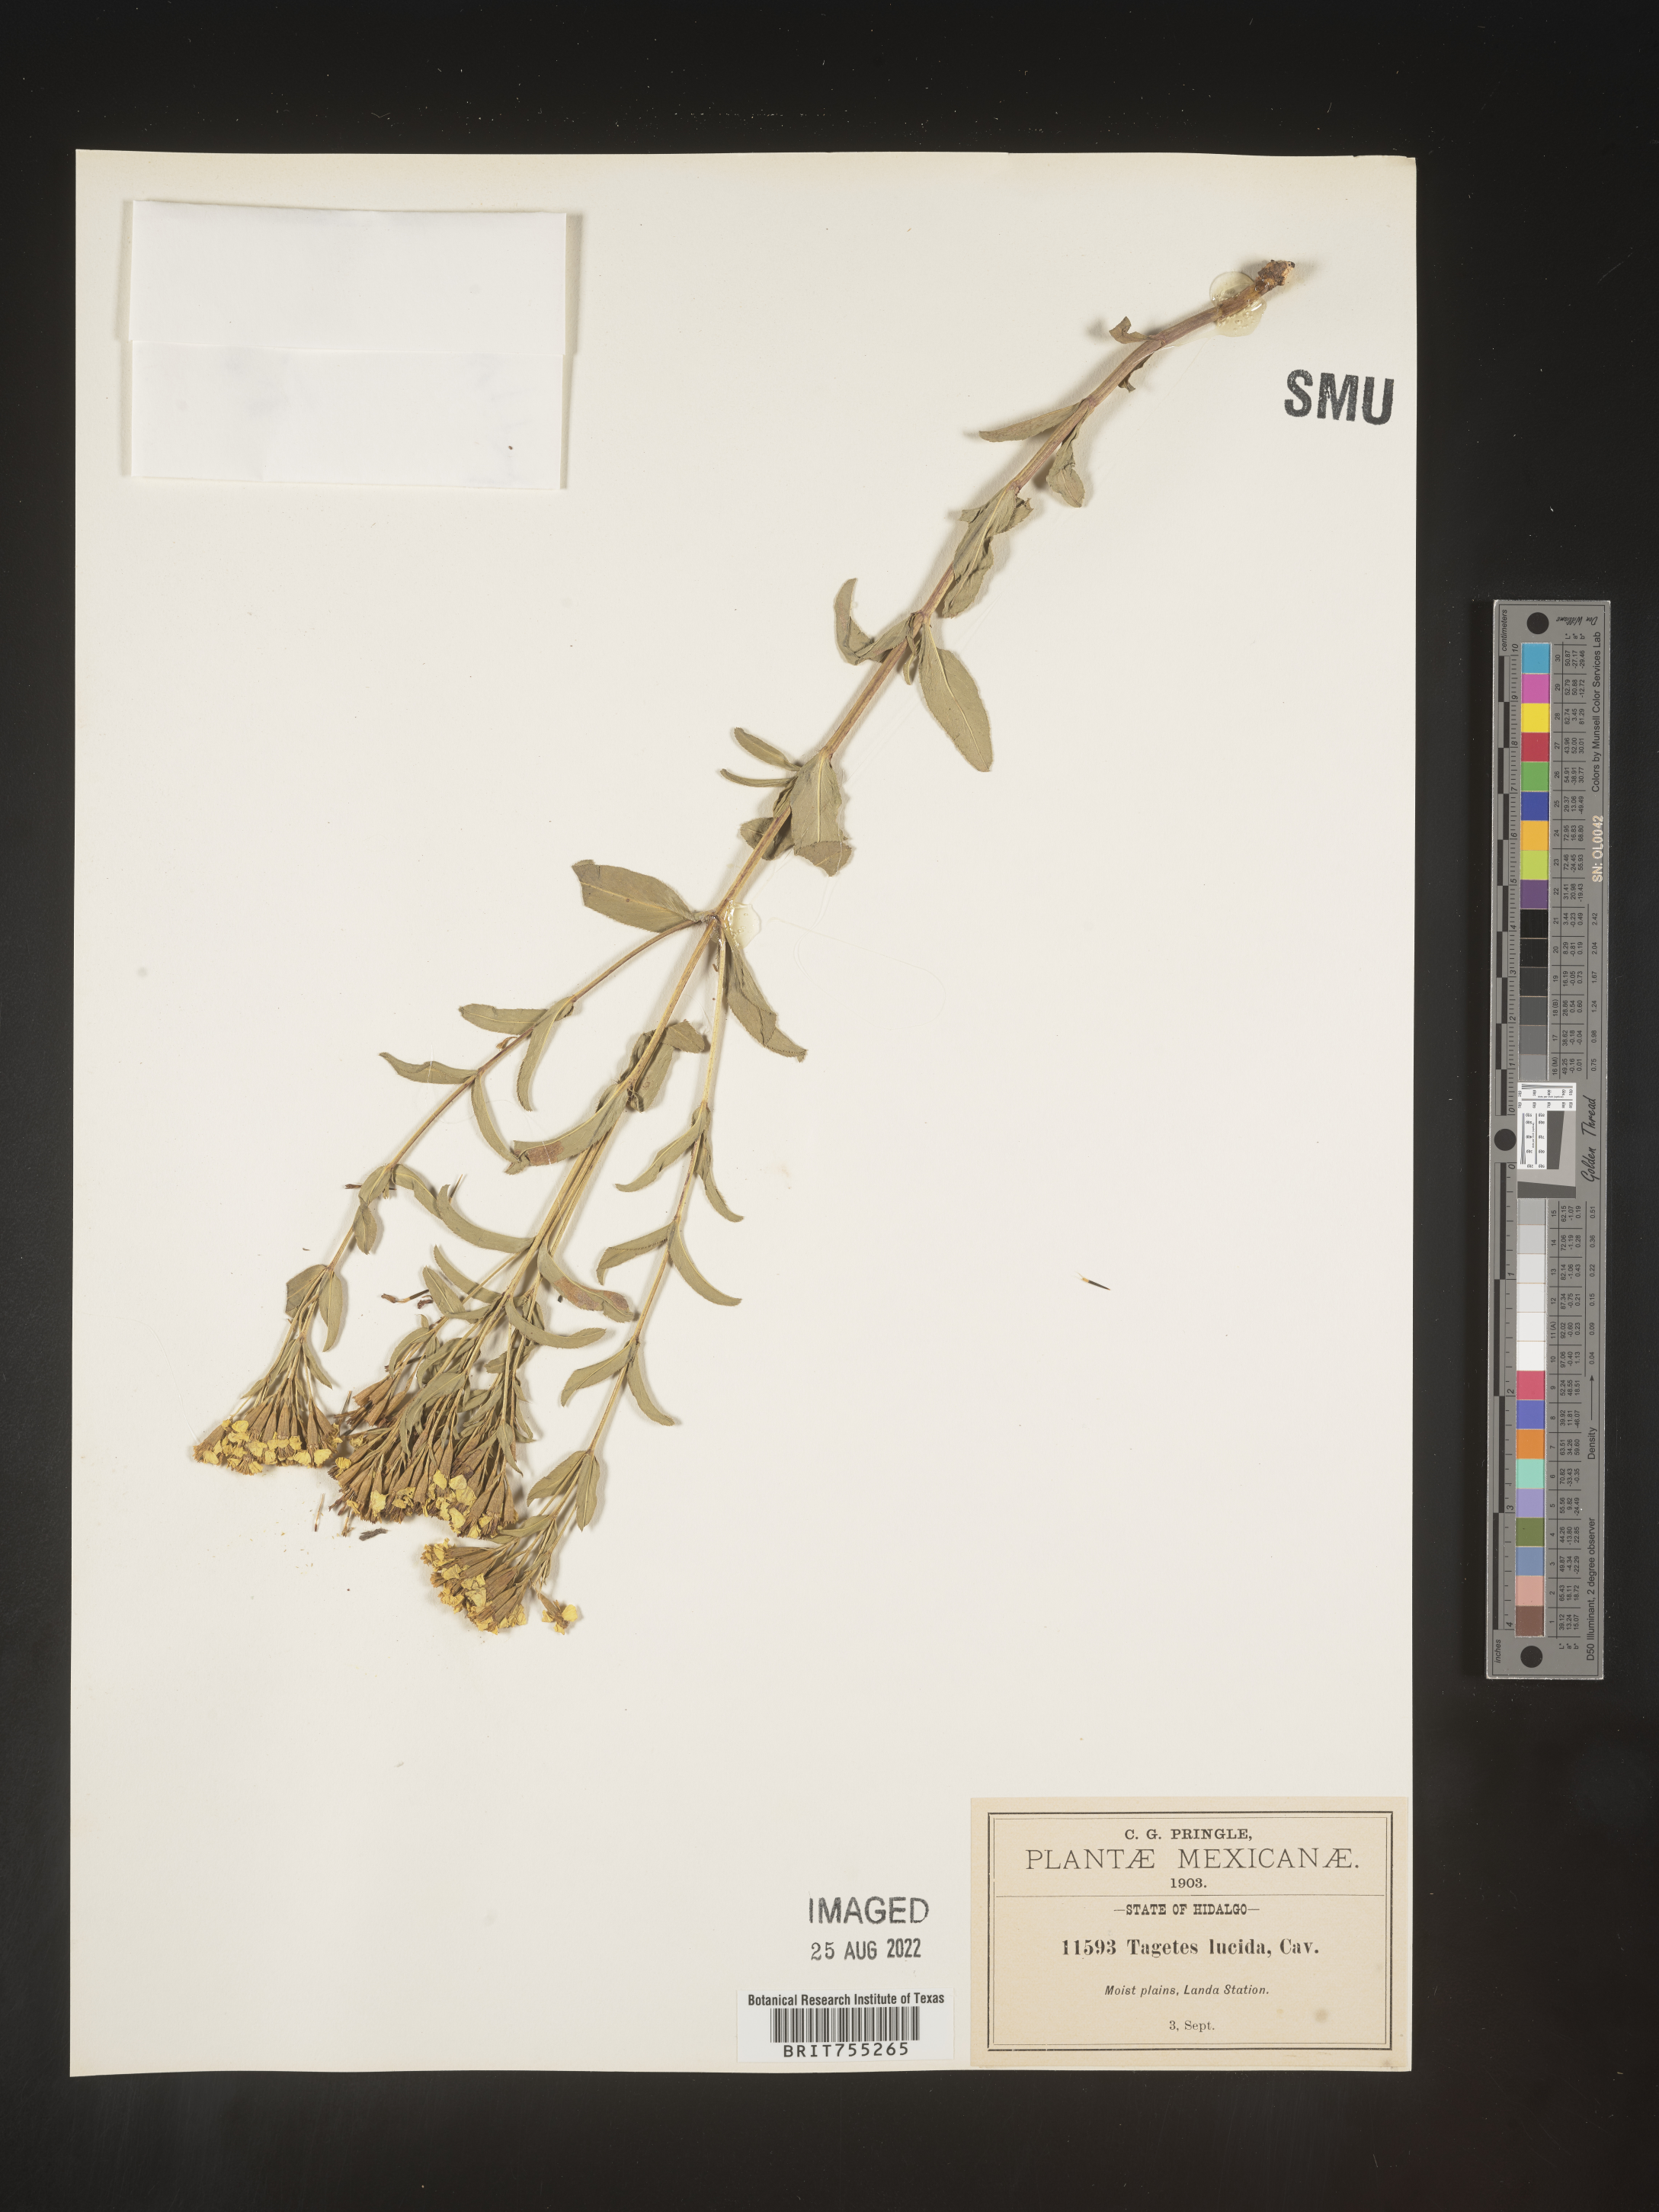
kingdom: Plantae
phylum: Tracheophyta
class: Magnoliopsida
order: Asterales
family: Asteraceae
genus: Tagetes
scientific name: Tagetes lucida
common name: Sweetscented marigold
